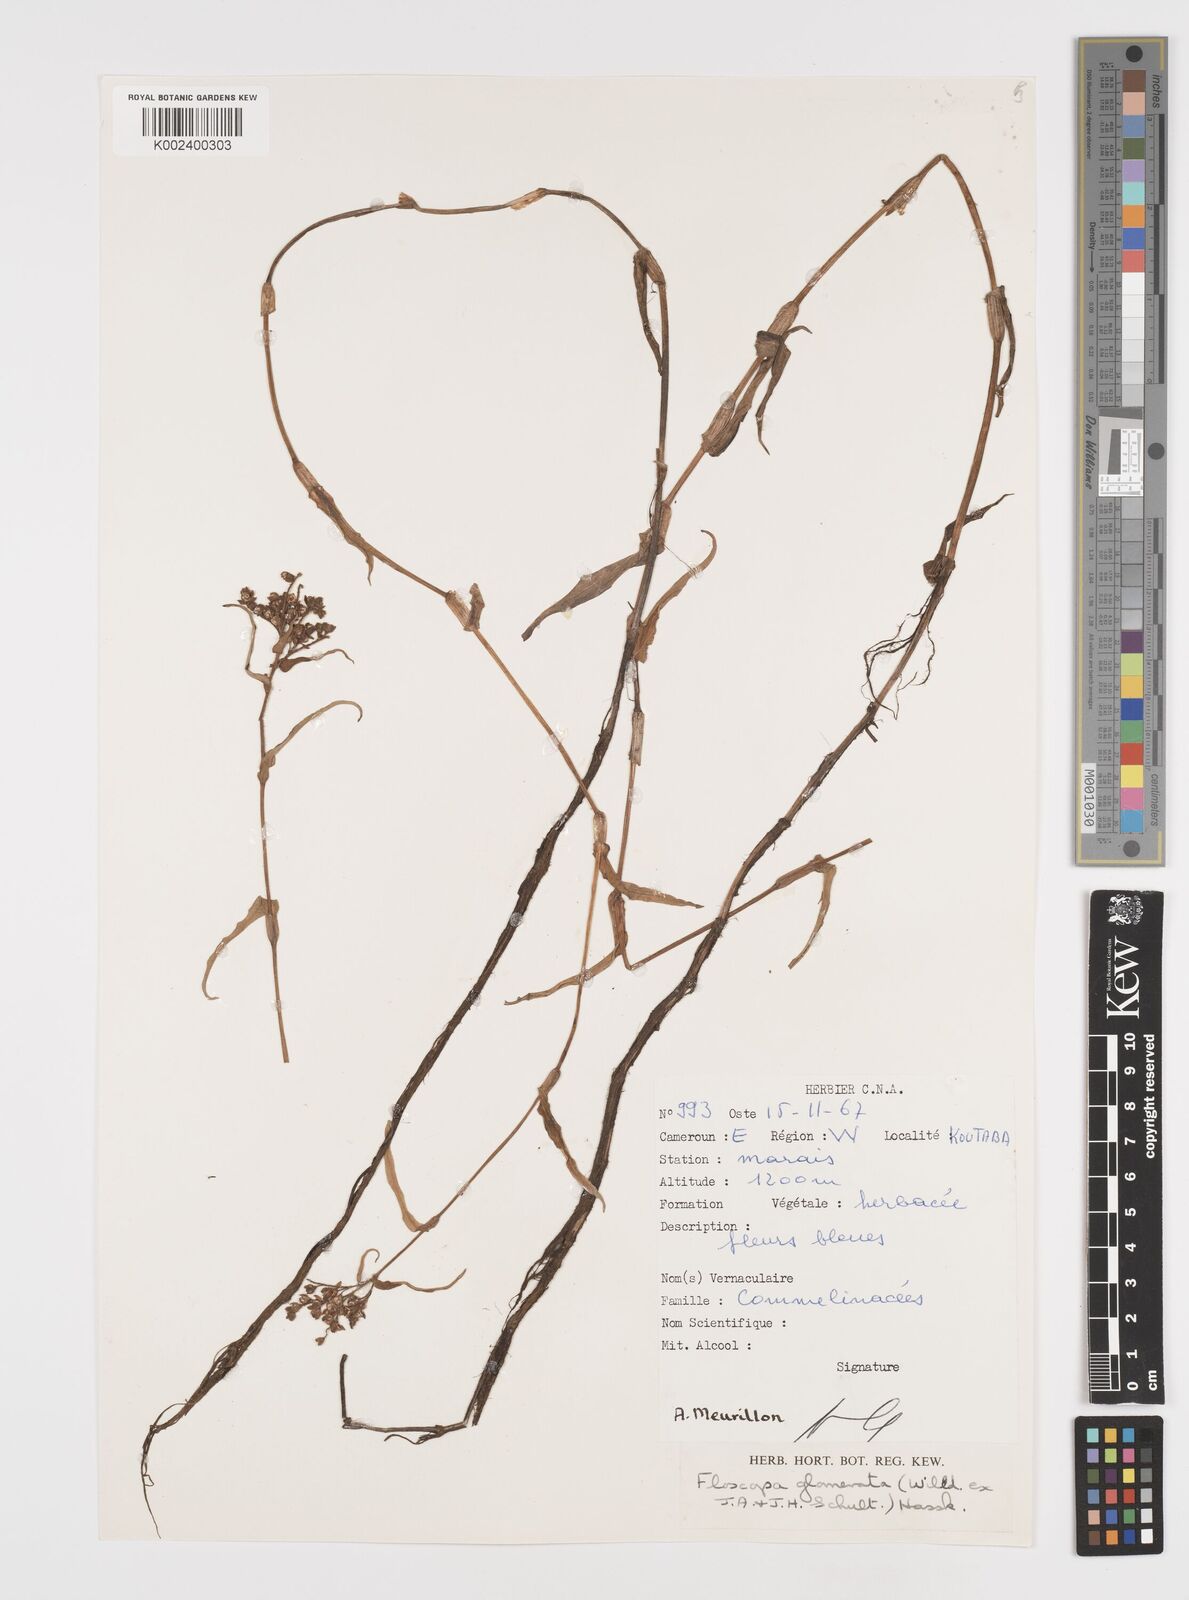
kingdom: Plantae
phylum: Tracheophyta
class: Liliopsida
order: Commelinales
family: Commelinaceae
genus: Floscopa
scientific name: Floscopa glomerata
